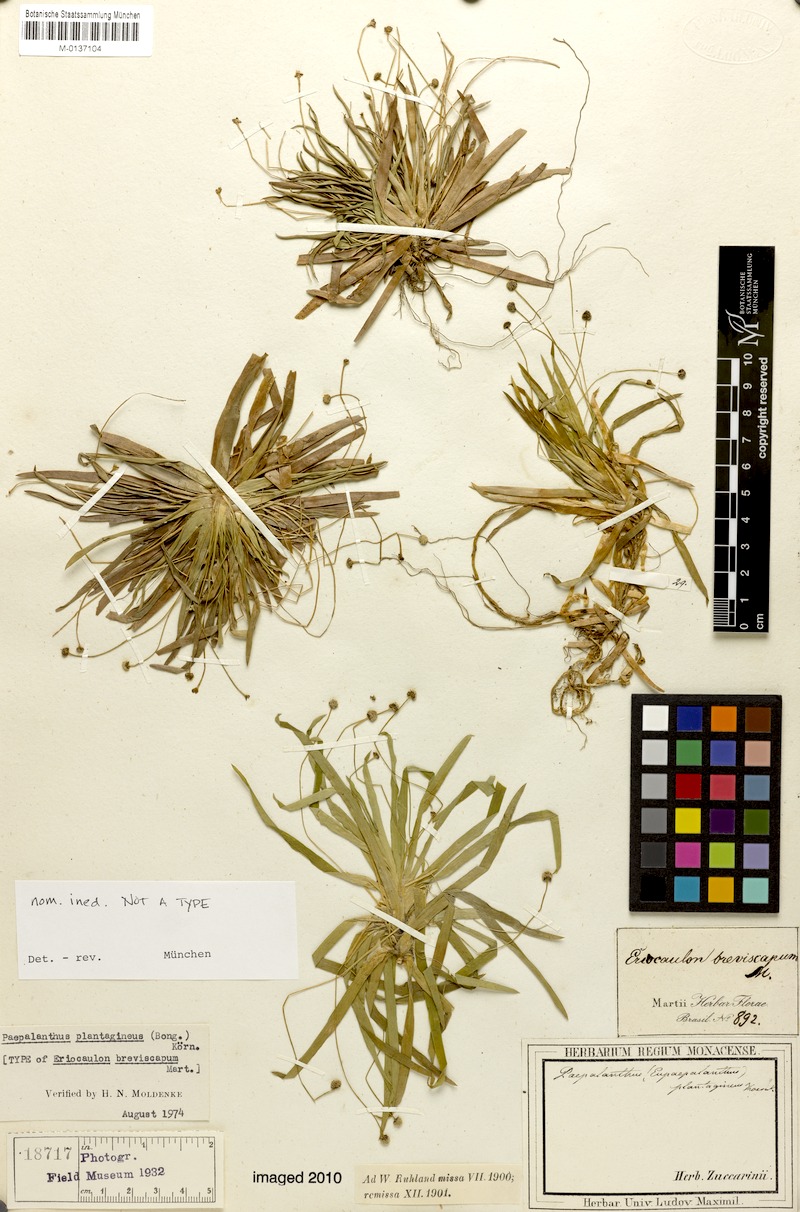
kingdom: Plantae
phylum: Tracheophyta
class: Liliopsida
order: Poales
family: Eriocaulaceae
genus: Paepalanthus
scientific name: Paepalanthus plantagineus
